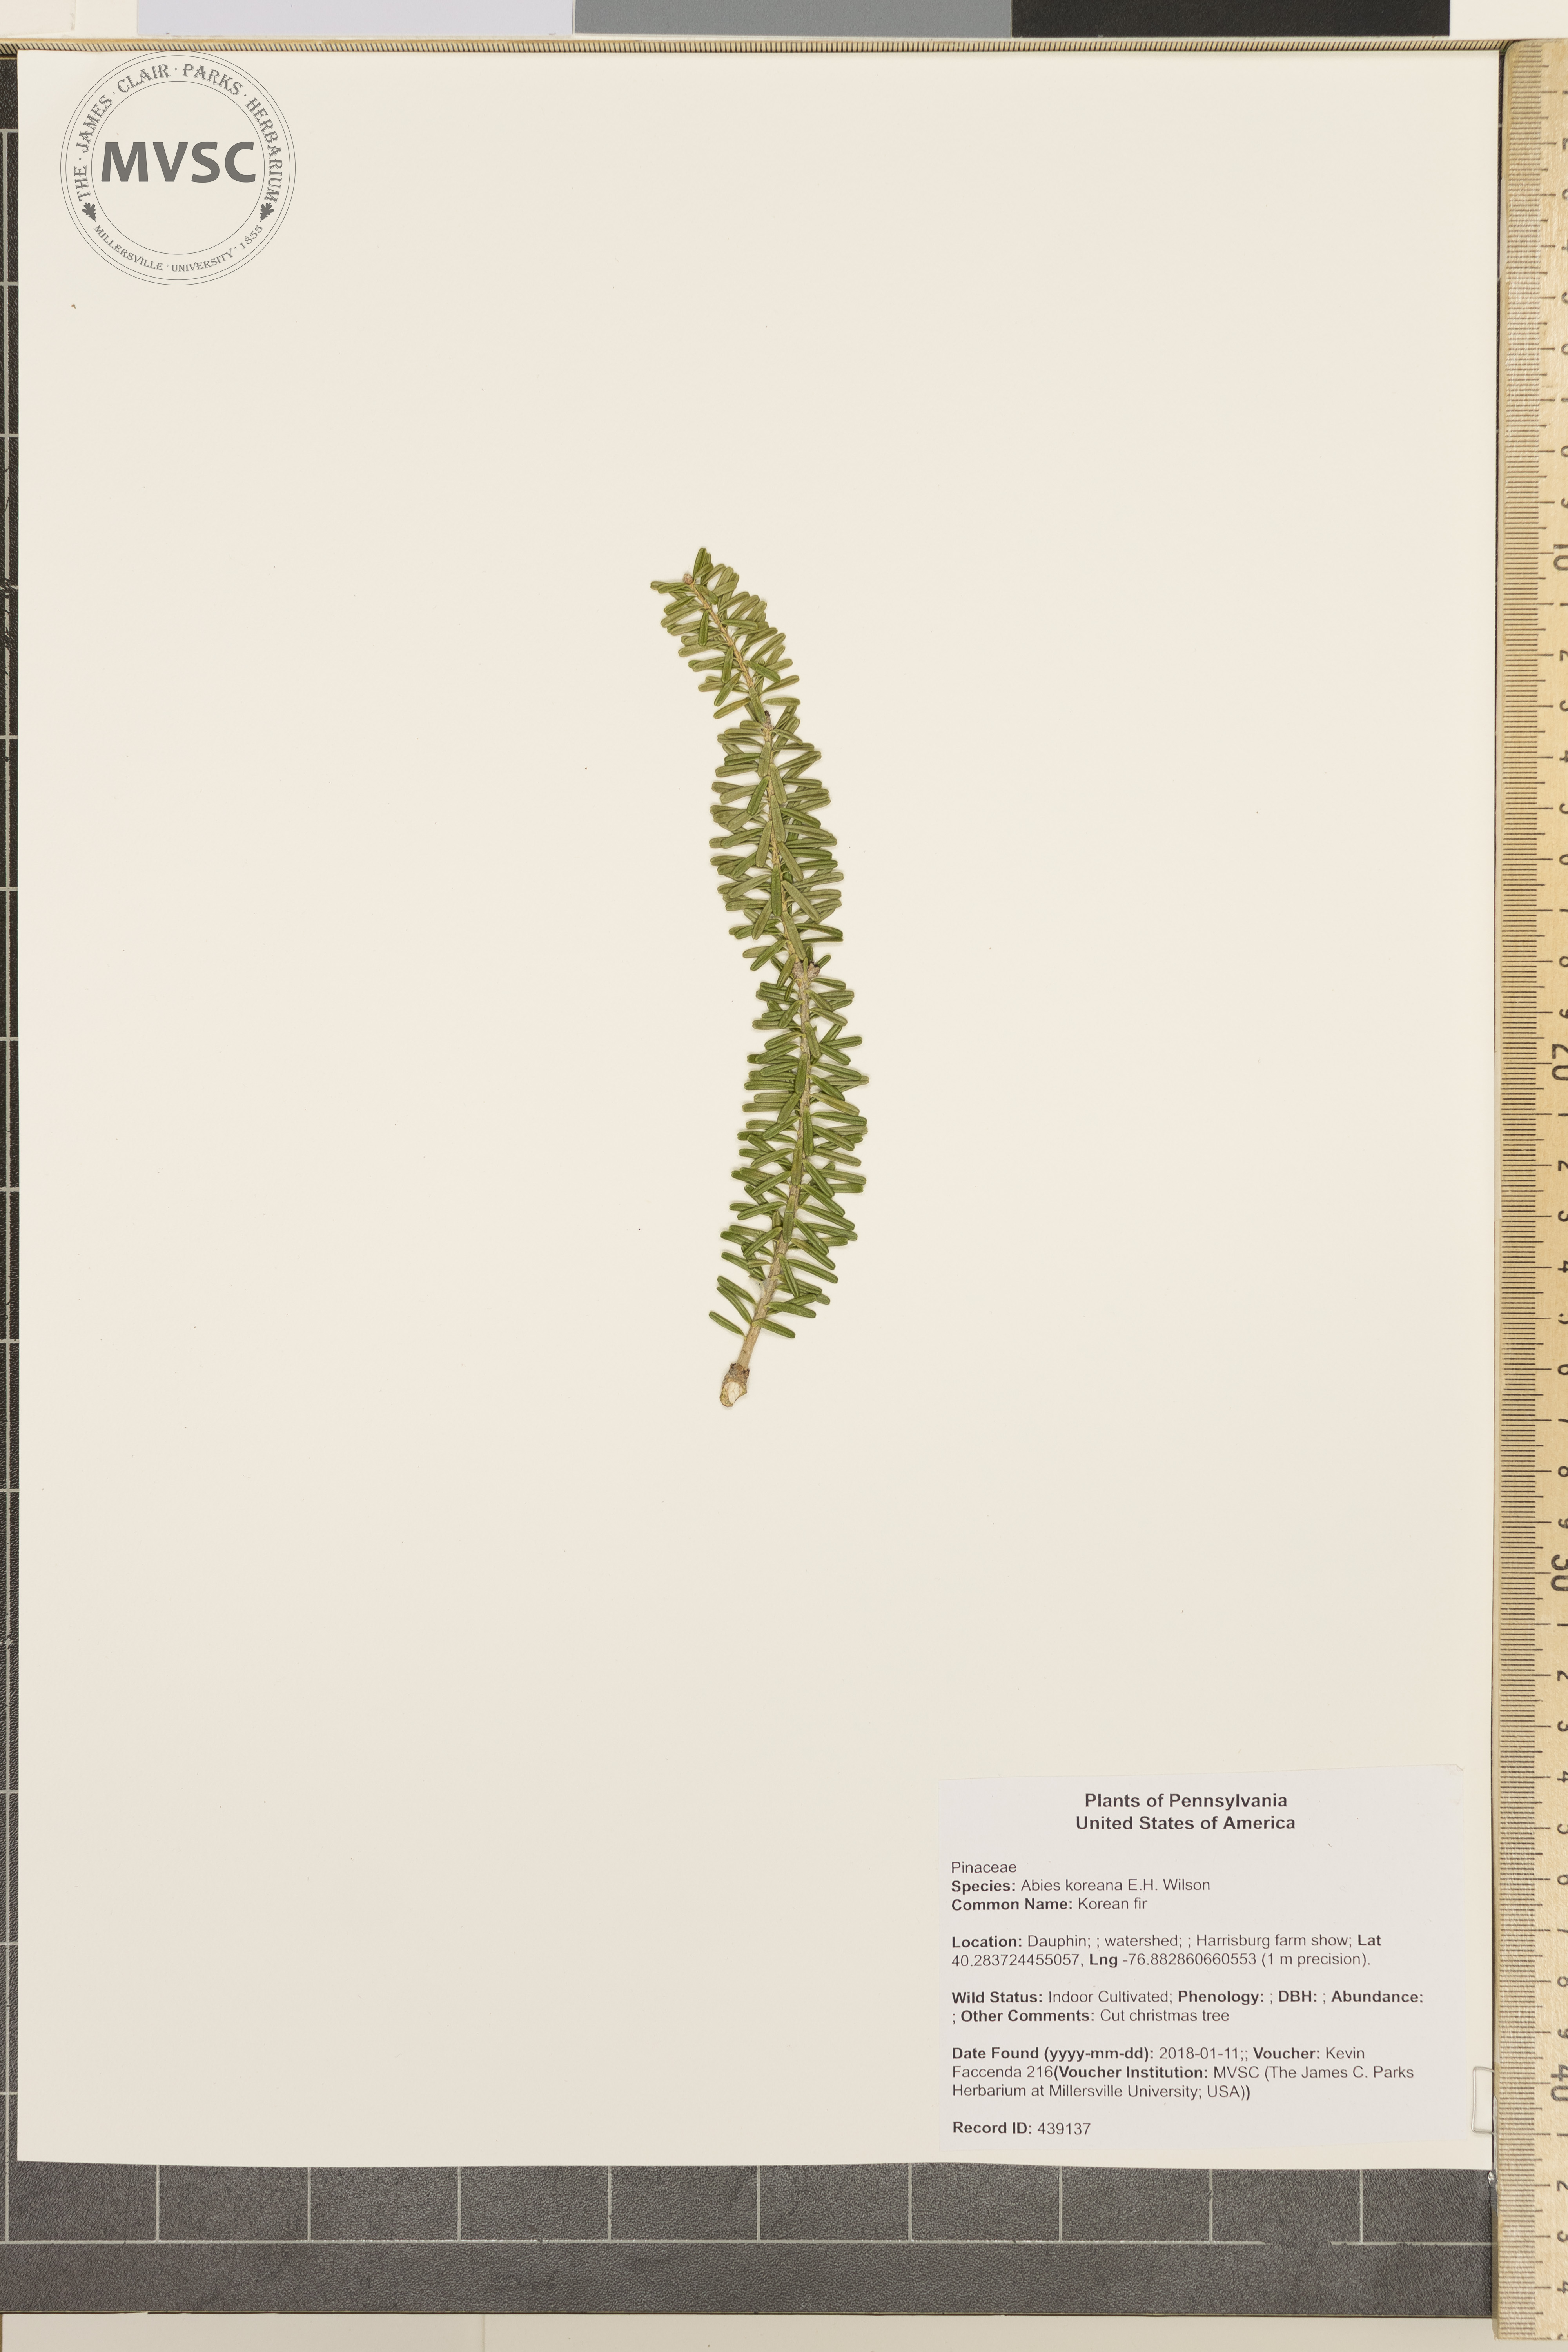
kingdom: Plantae
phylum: Tracheophyta
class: Pinopsida
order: Pinales
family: Pinaceae
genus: Abies
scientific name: Abies koreana
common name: Korean fir
